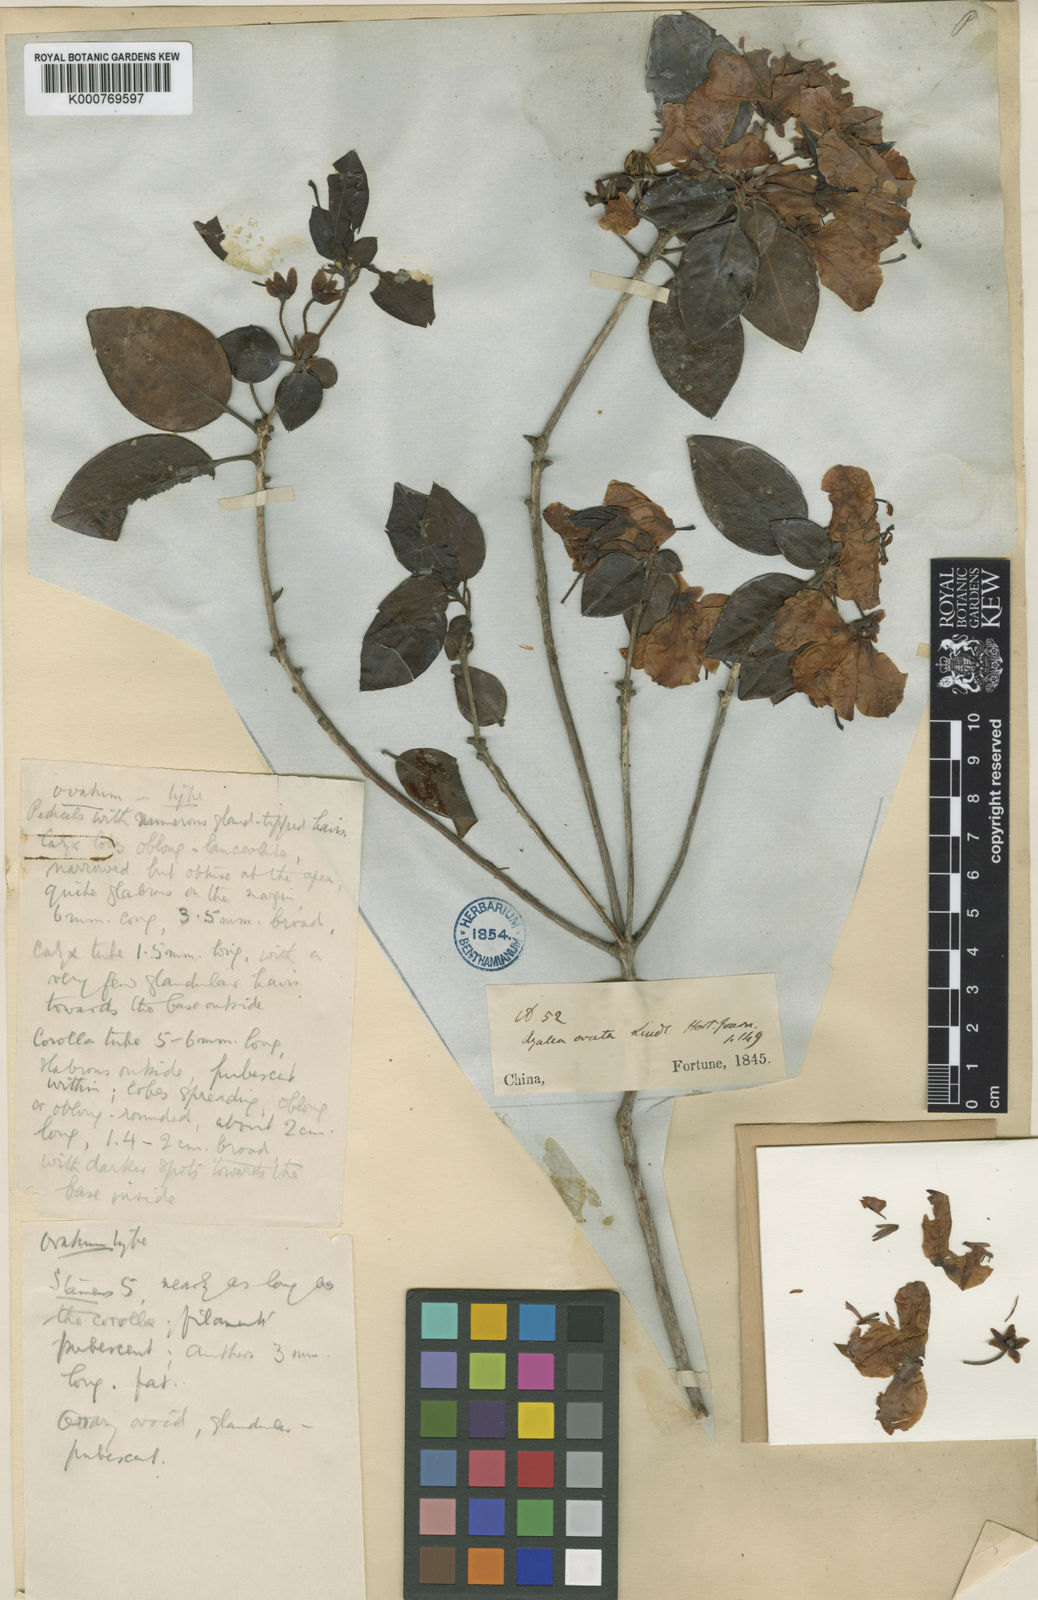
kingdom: Plantae
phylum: Tracheophyta
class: Magnoliopsida
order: Ericales
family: Ericaceae
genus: Rhododendron
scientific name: Rhododendron ovatum
